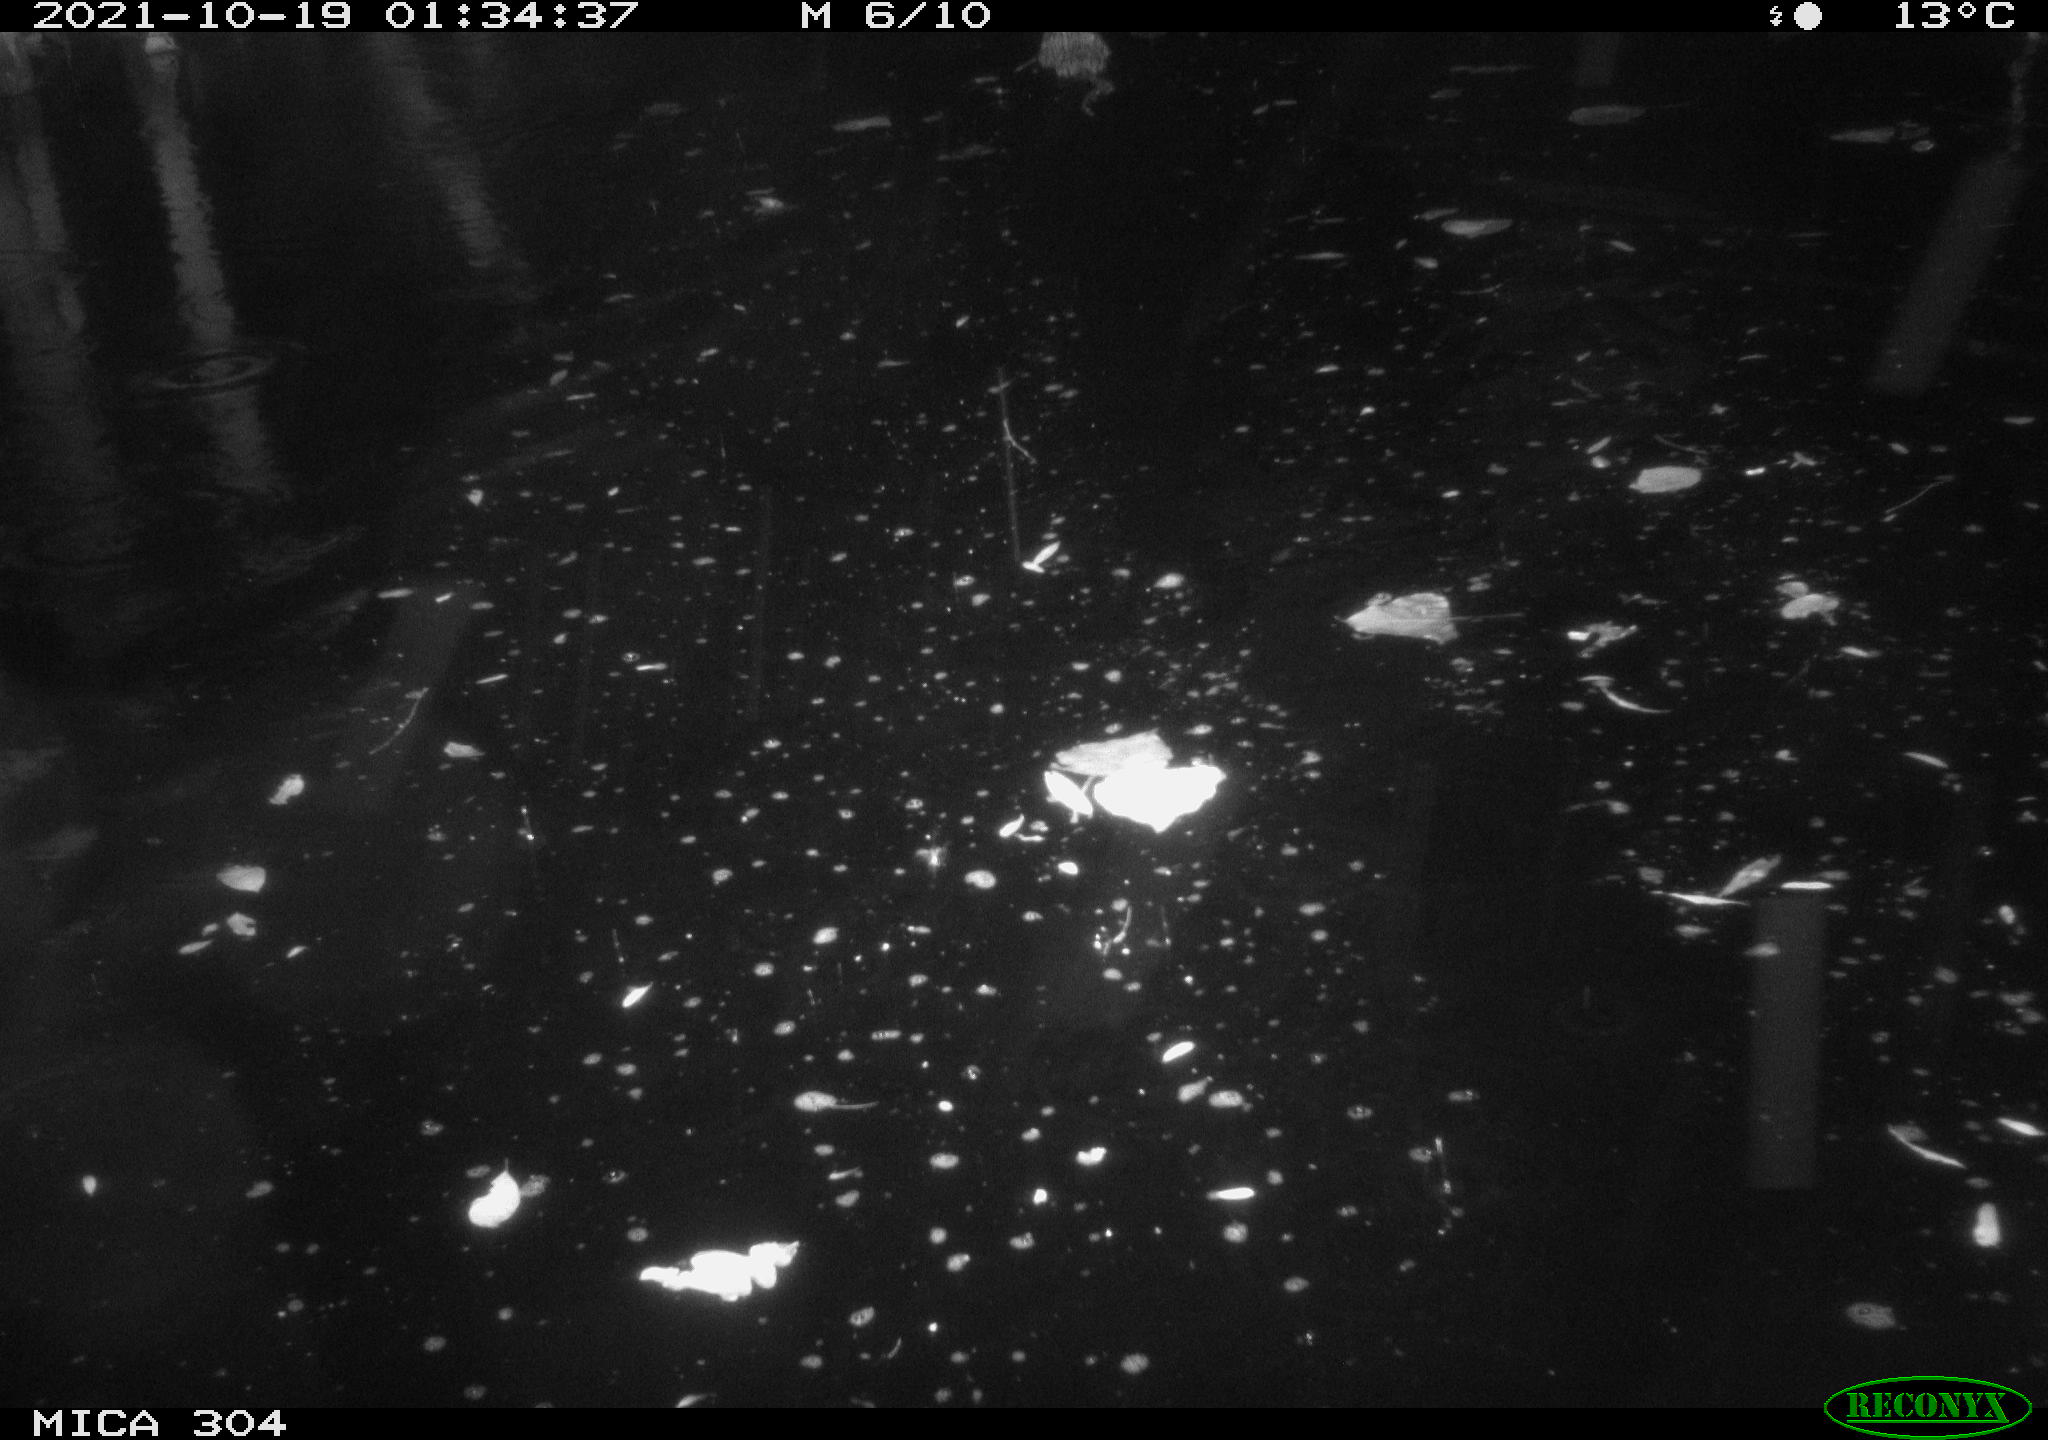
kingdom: Animalia
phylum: Chordata
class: Mammalia
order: Rodentia
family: Cricetidae
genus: Ondatra
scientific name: Ondatra zibethicus
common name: Muskrat
